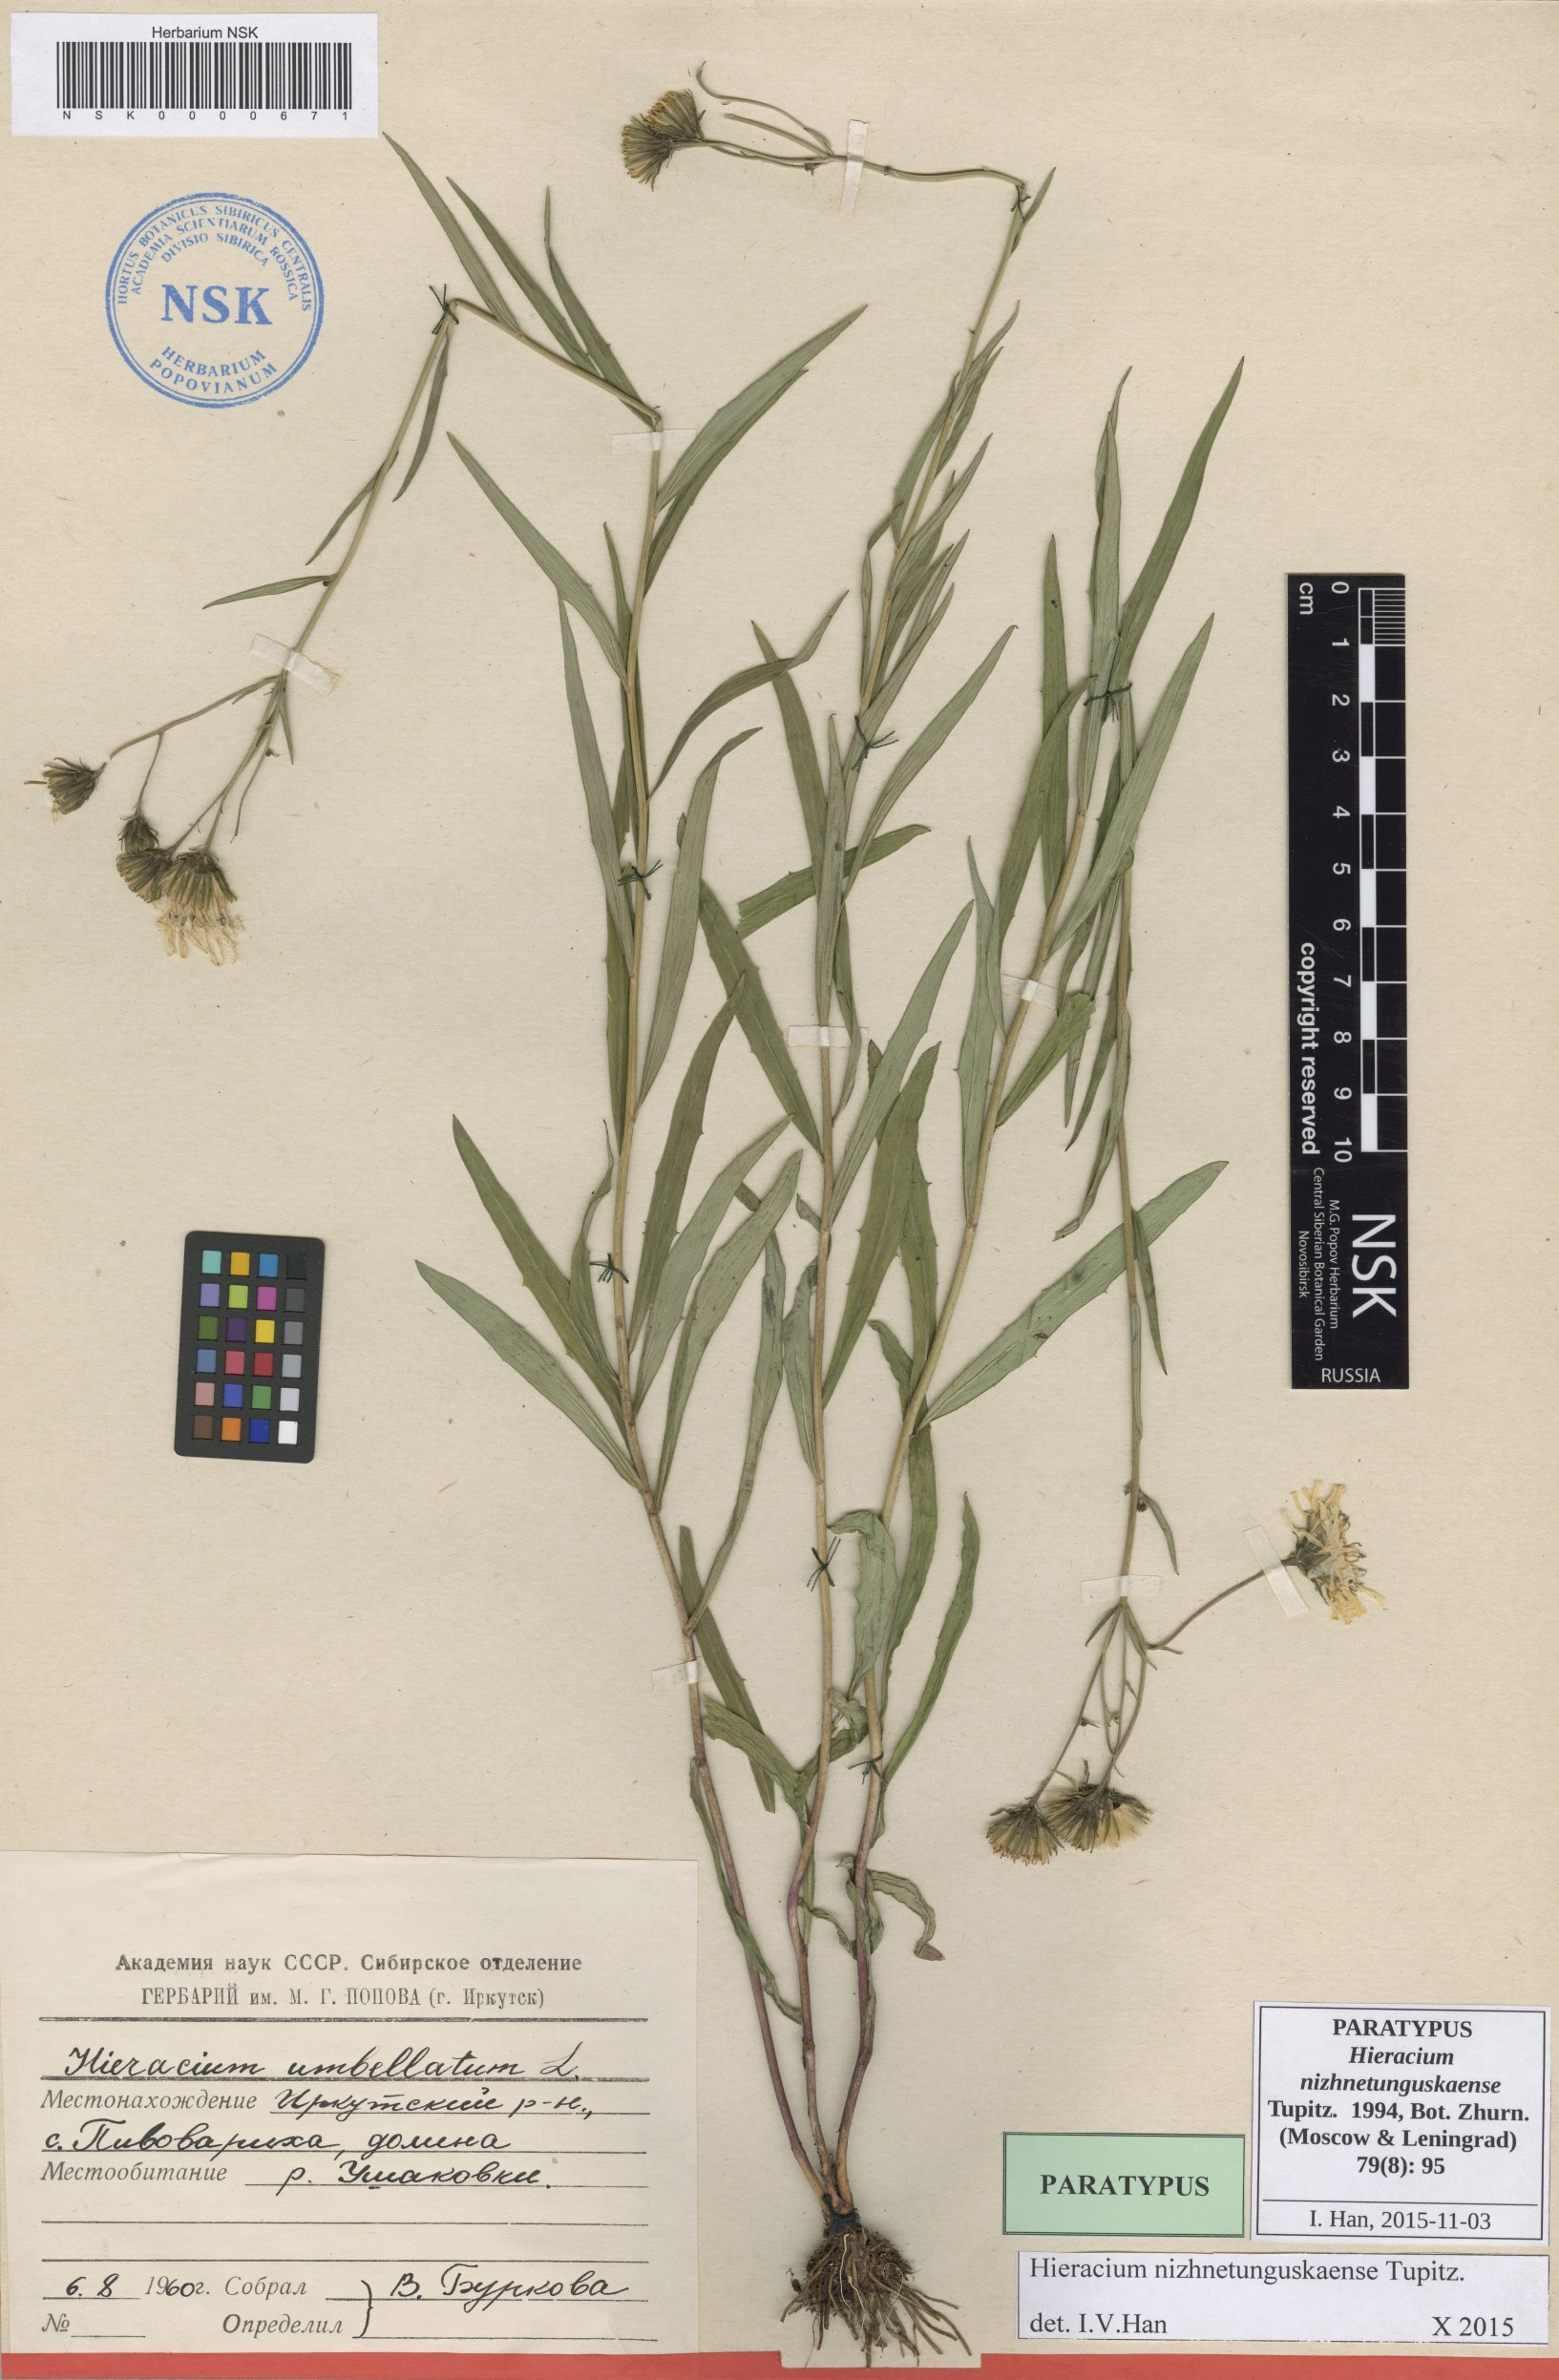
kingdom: Plantae
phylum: Tracheophyta
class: Magnoliopsida
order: Asterales
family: Asteraceae
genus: Hieracium
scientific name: Hieracium nizhnetunguskaense
